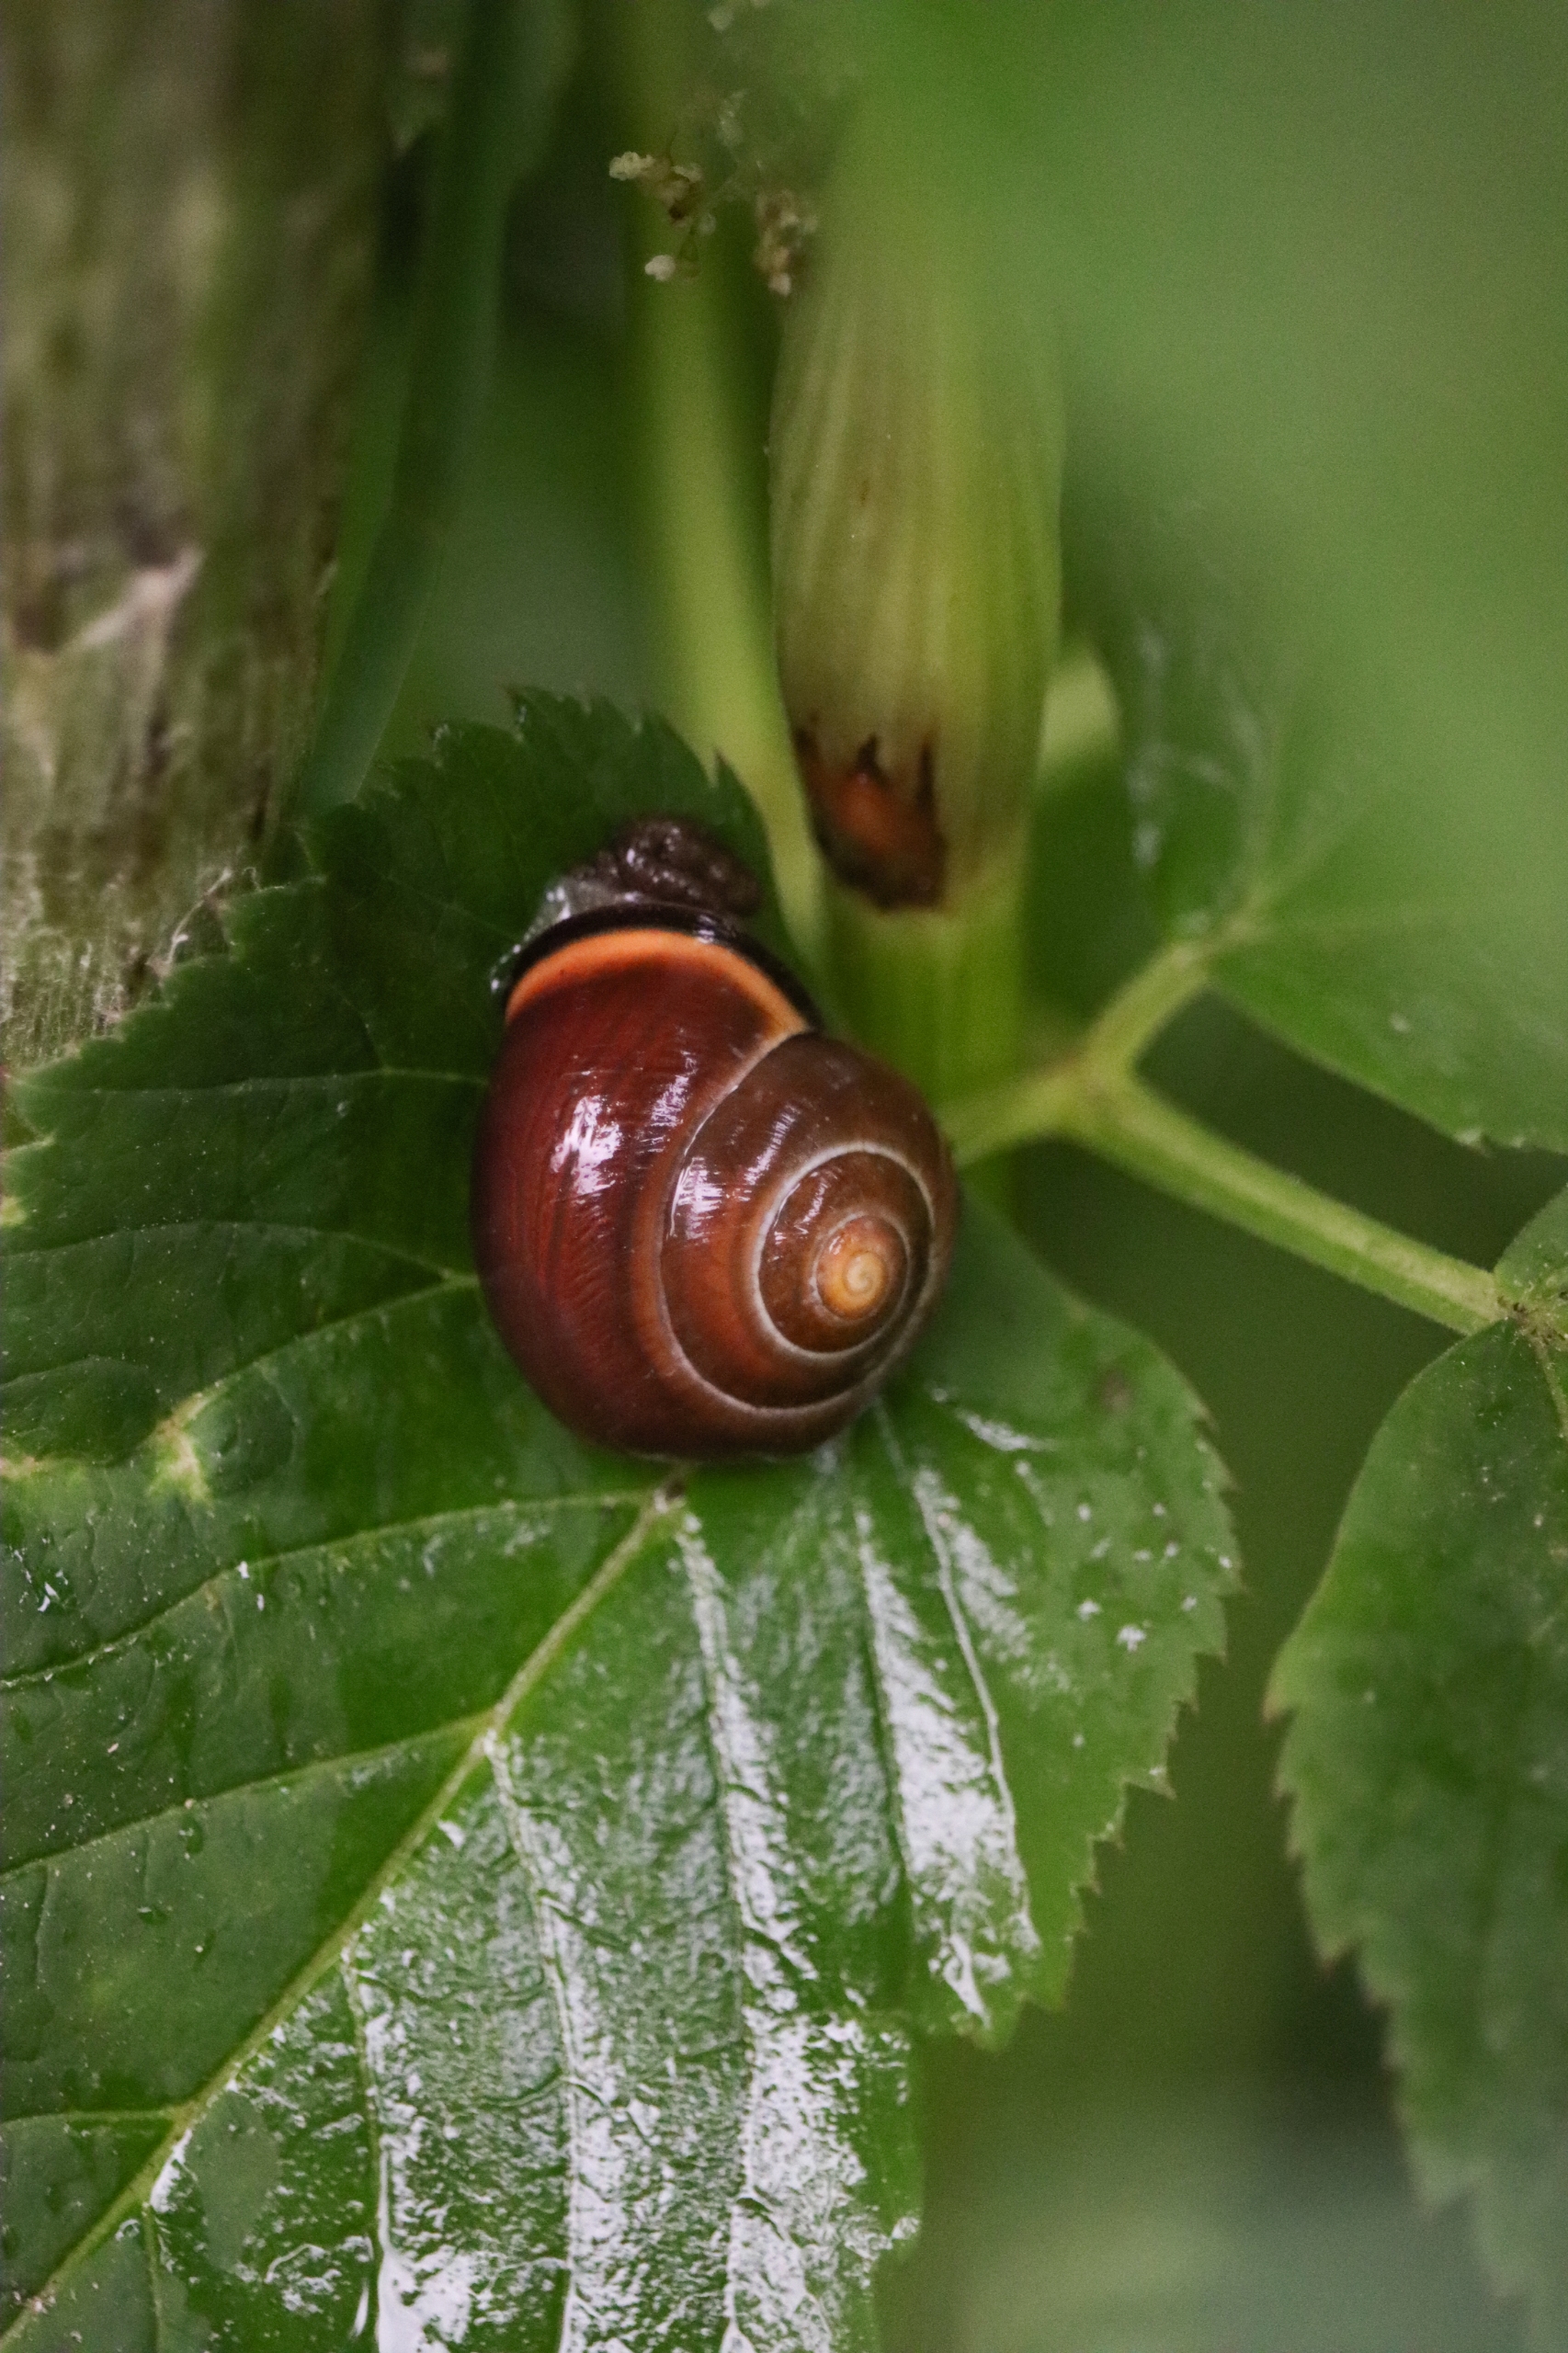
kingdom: Animalia
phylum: Mollusca
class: Gastropoda
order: Stylommatophora
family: Helicidae
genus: Cepaea
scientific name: Cepaea nemoralis
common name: Lundsnegl
